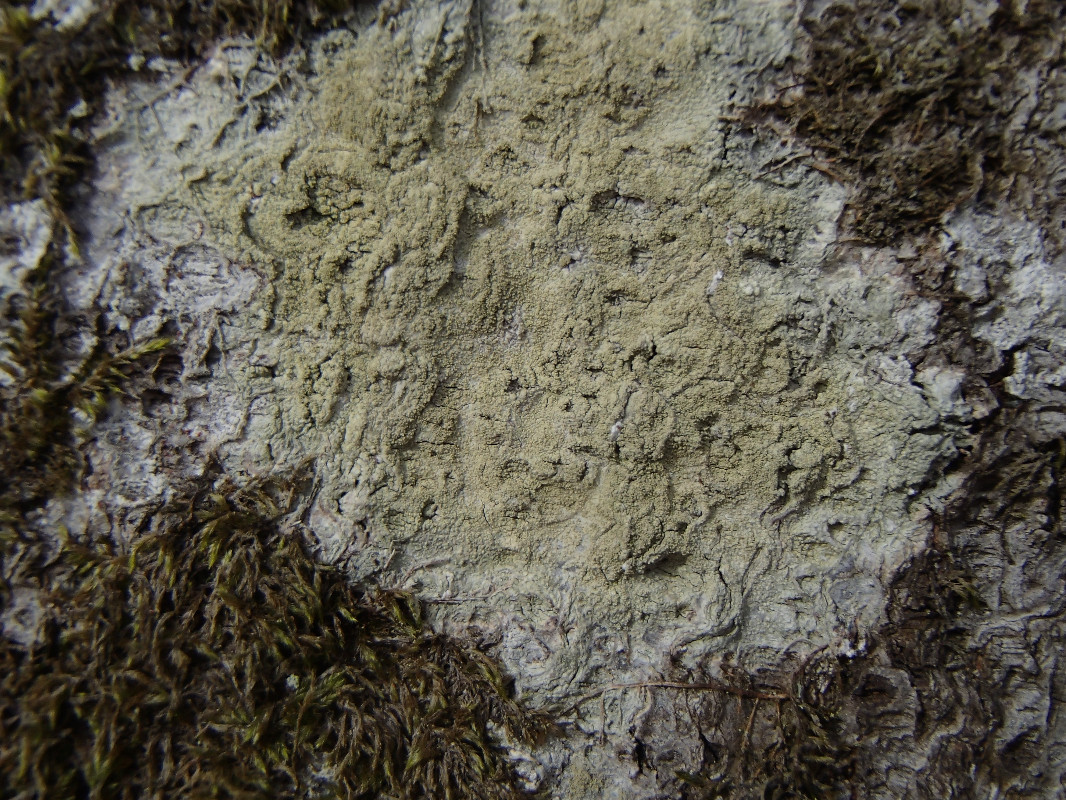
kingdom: Fungi
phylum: Ascomycota
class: Lecanoromycetes
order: Pertusariales
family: Pertusariaceae
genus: Pertusaria
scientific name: Pertusaria flavida
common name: gul prikvortelav
